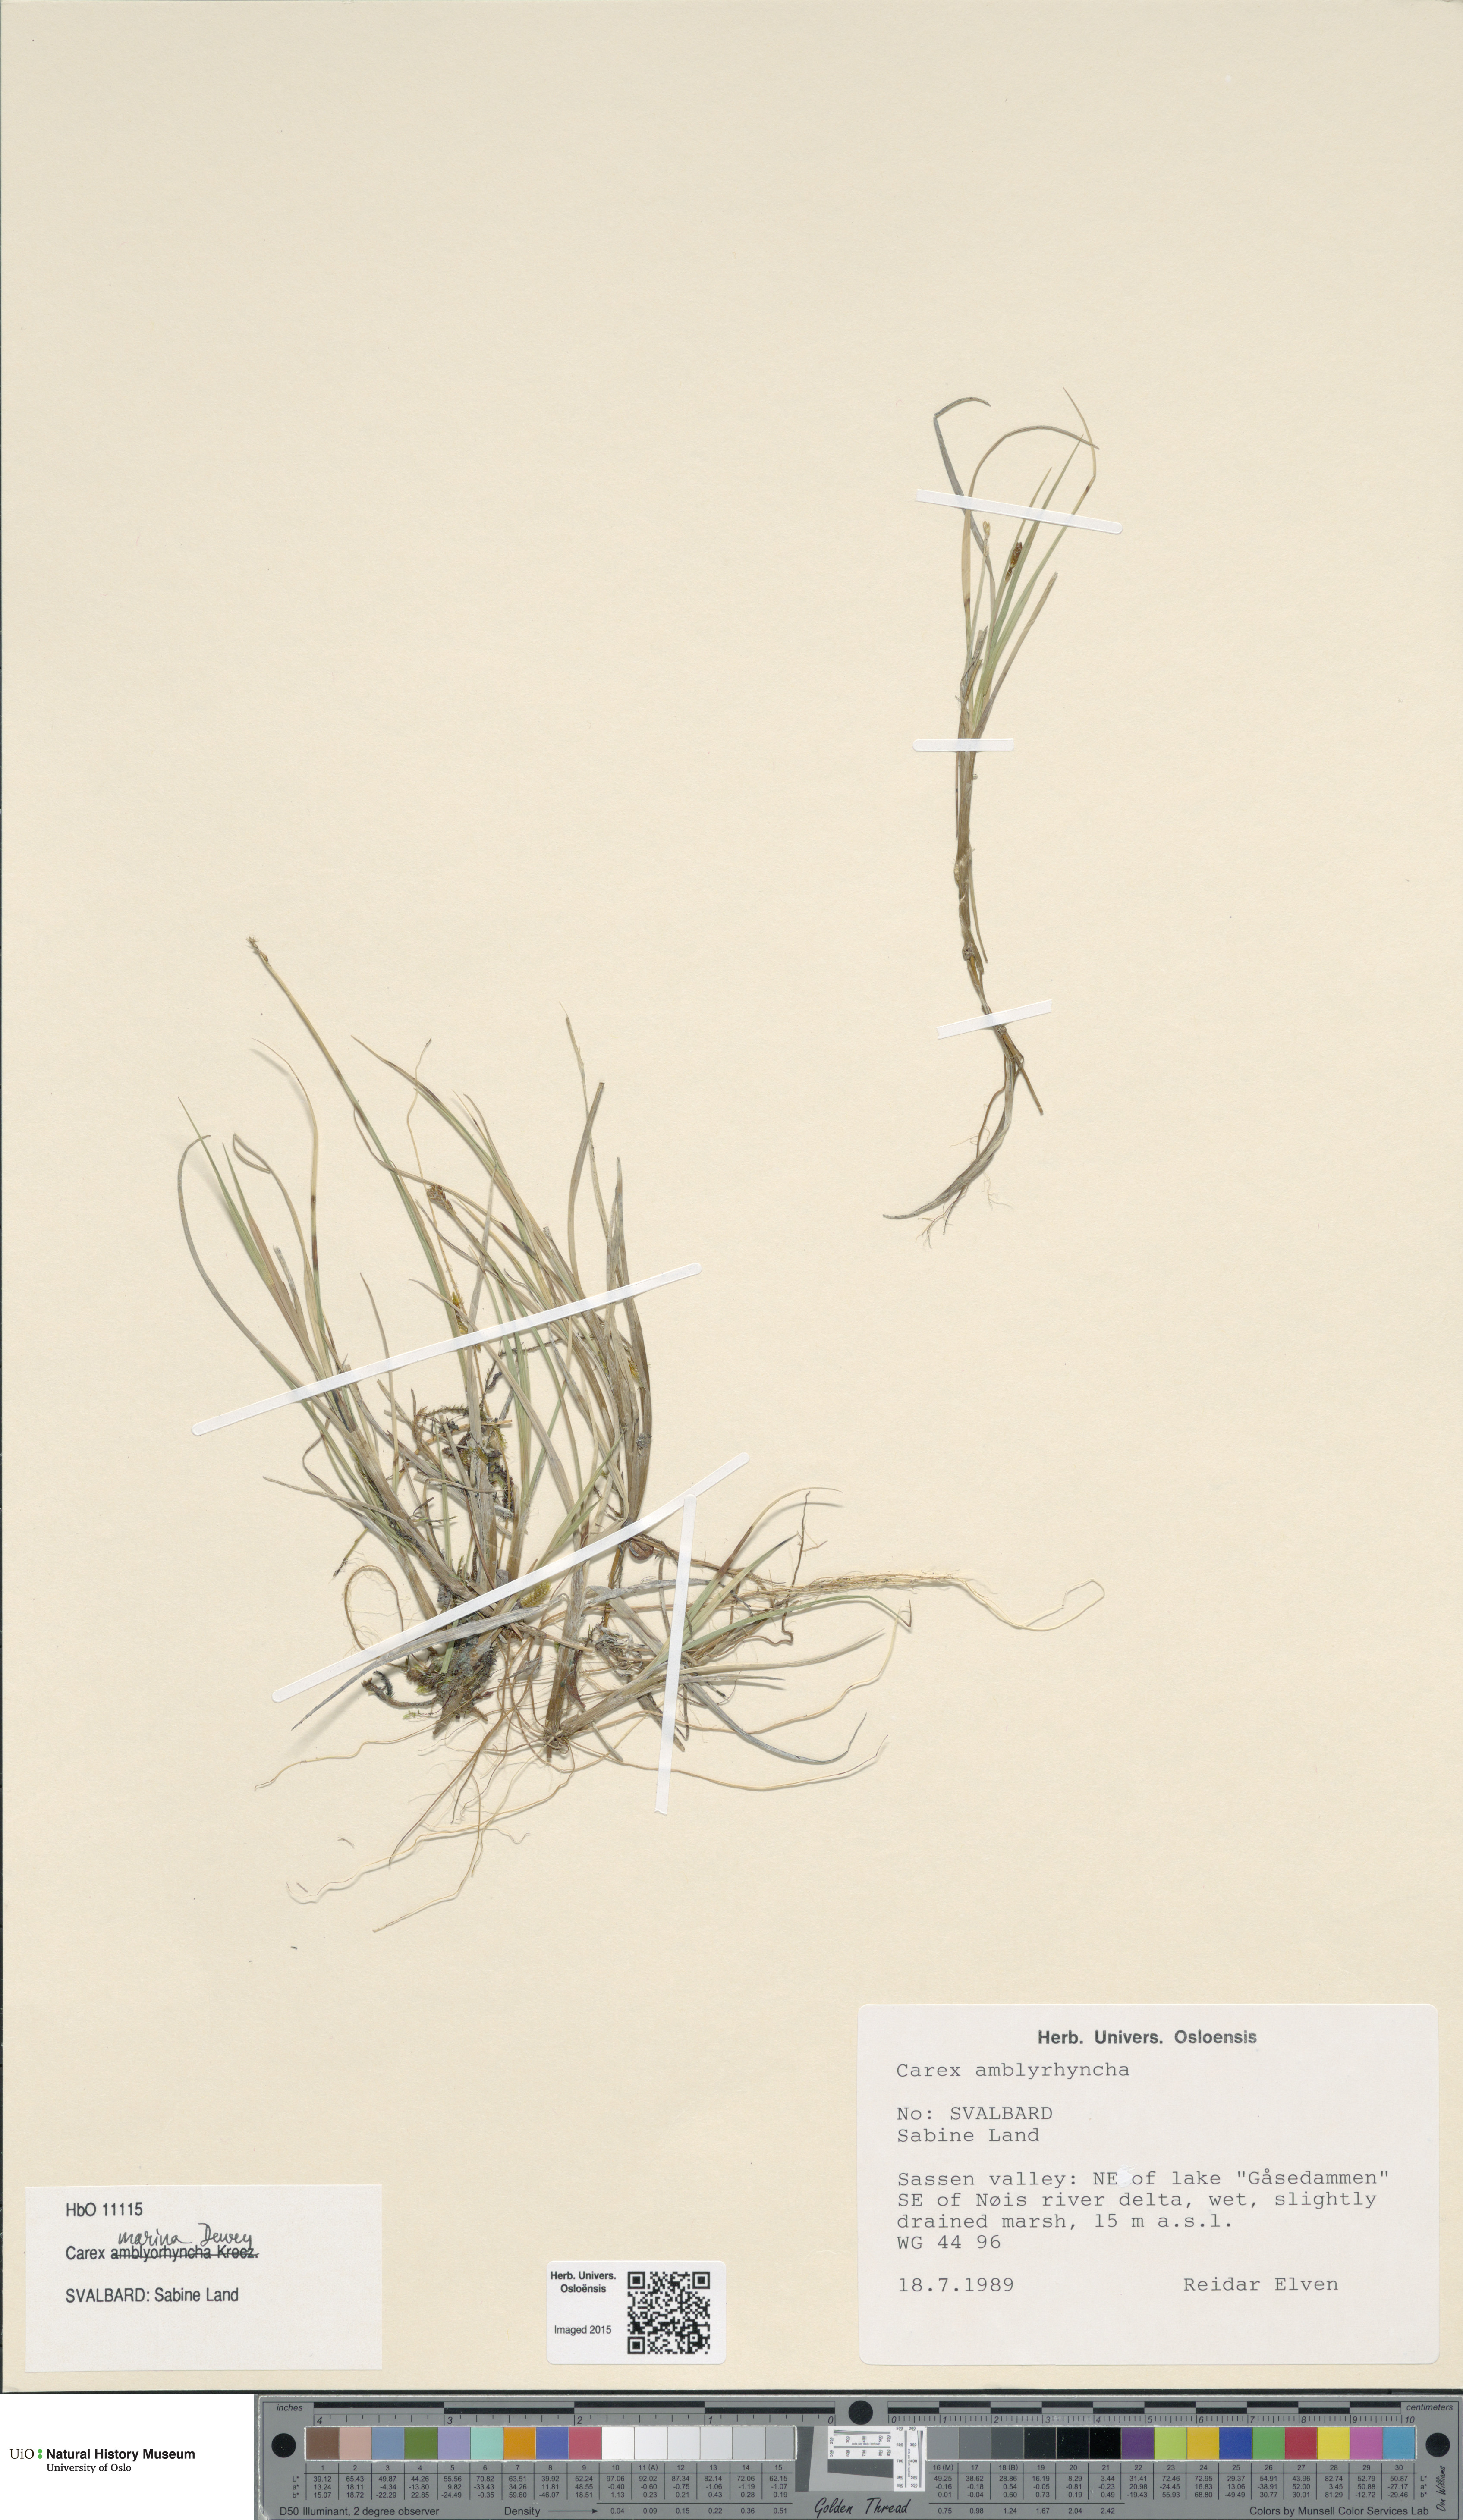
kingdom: Plantae
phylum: Tracheophyta
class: Liliopsida
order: Poales
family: Cyperaceae
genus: Carex
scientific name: Carex marina
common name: Seashore sedge
